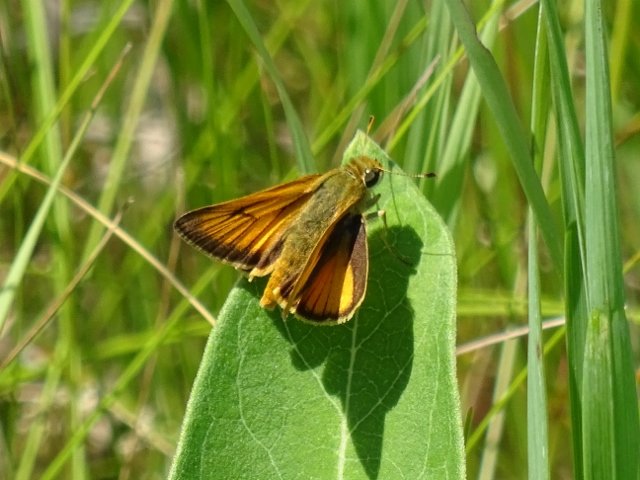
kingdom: Animalia
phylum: Arthropoda
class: Insecta
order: Lepidoptera
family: Hesperiidae
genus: Atrytone
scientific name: Atrytone delaware
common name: Delaware Skipper
